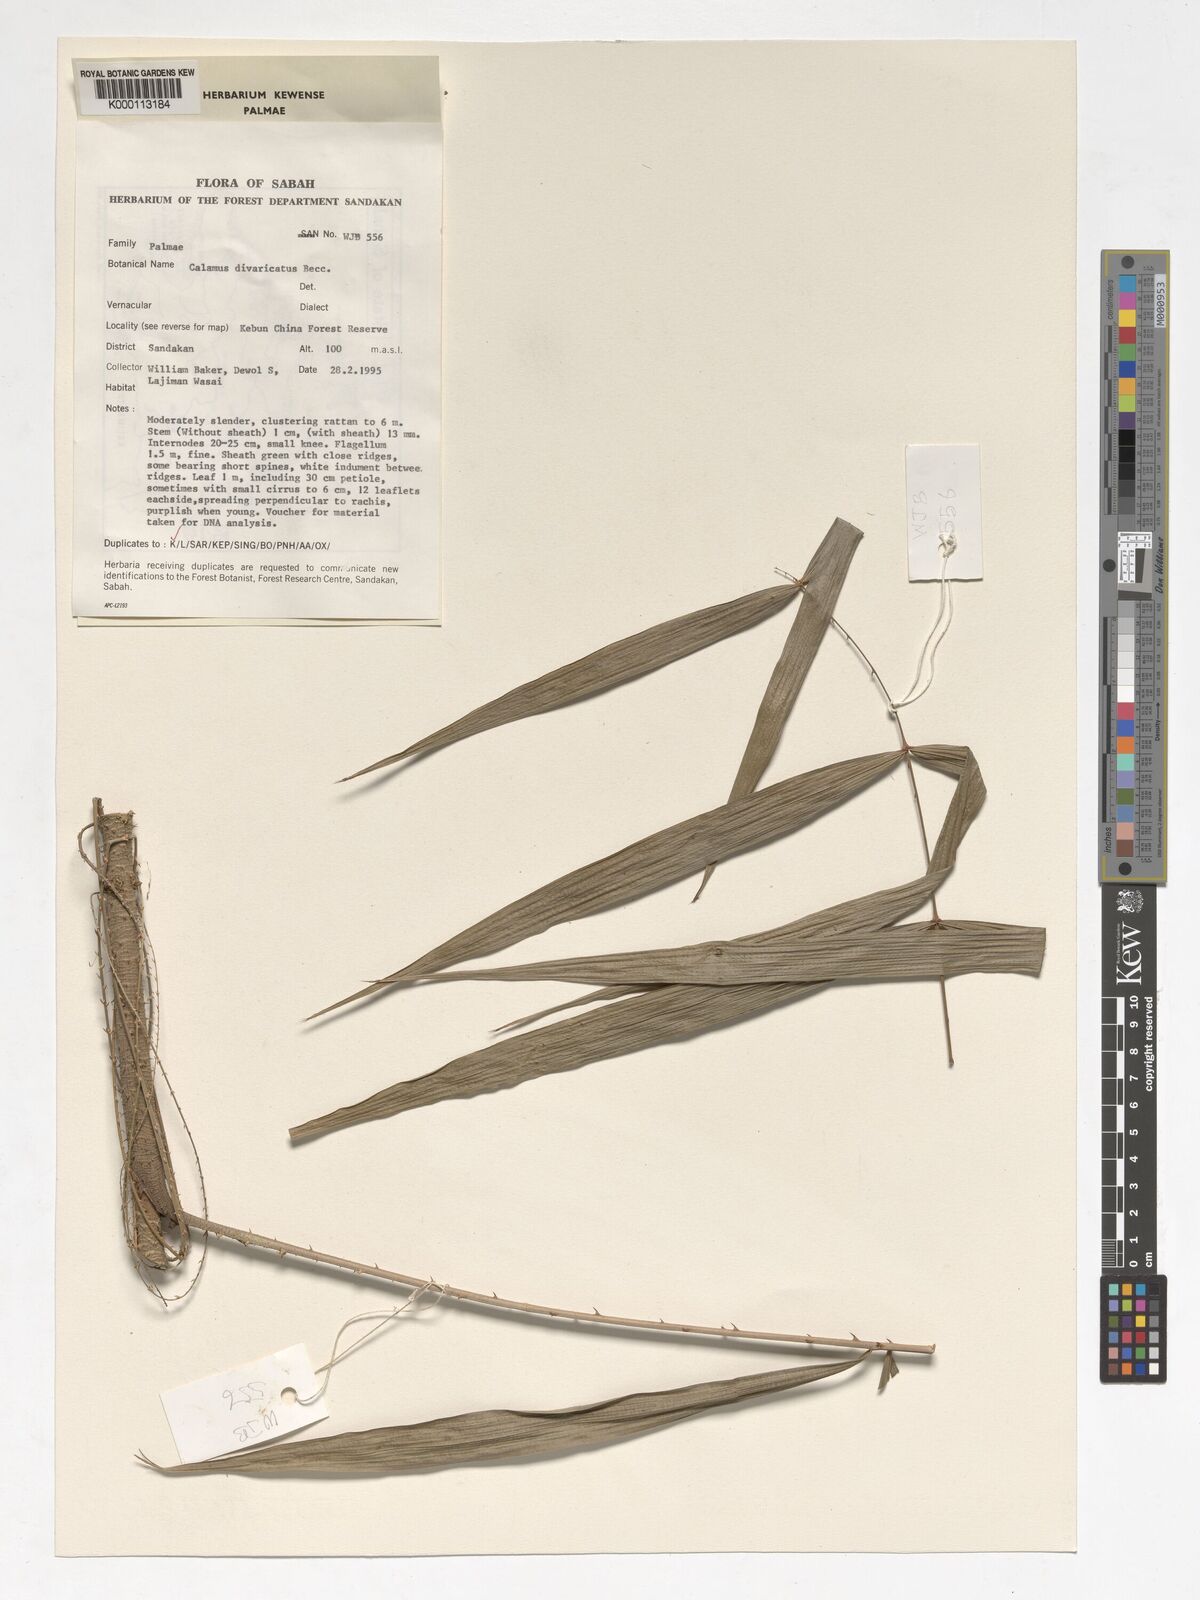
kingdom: Plantae
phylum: Tracheophyta
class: Liliopsida
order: Arecales
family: Arecaceae
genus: Calamus
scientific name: Calamus divaricatus
